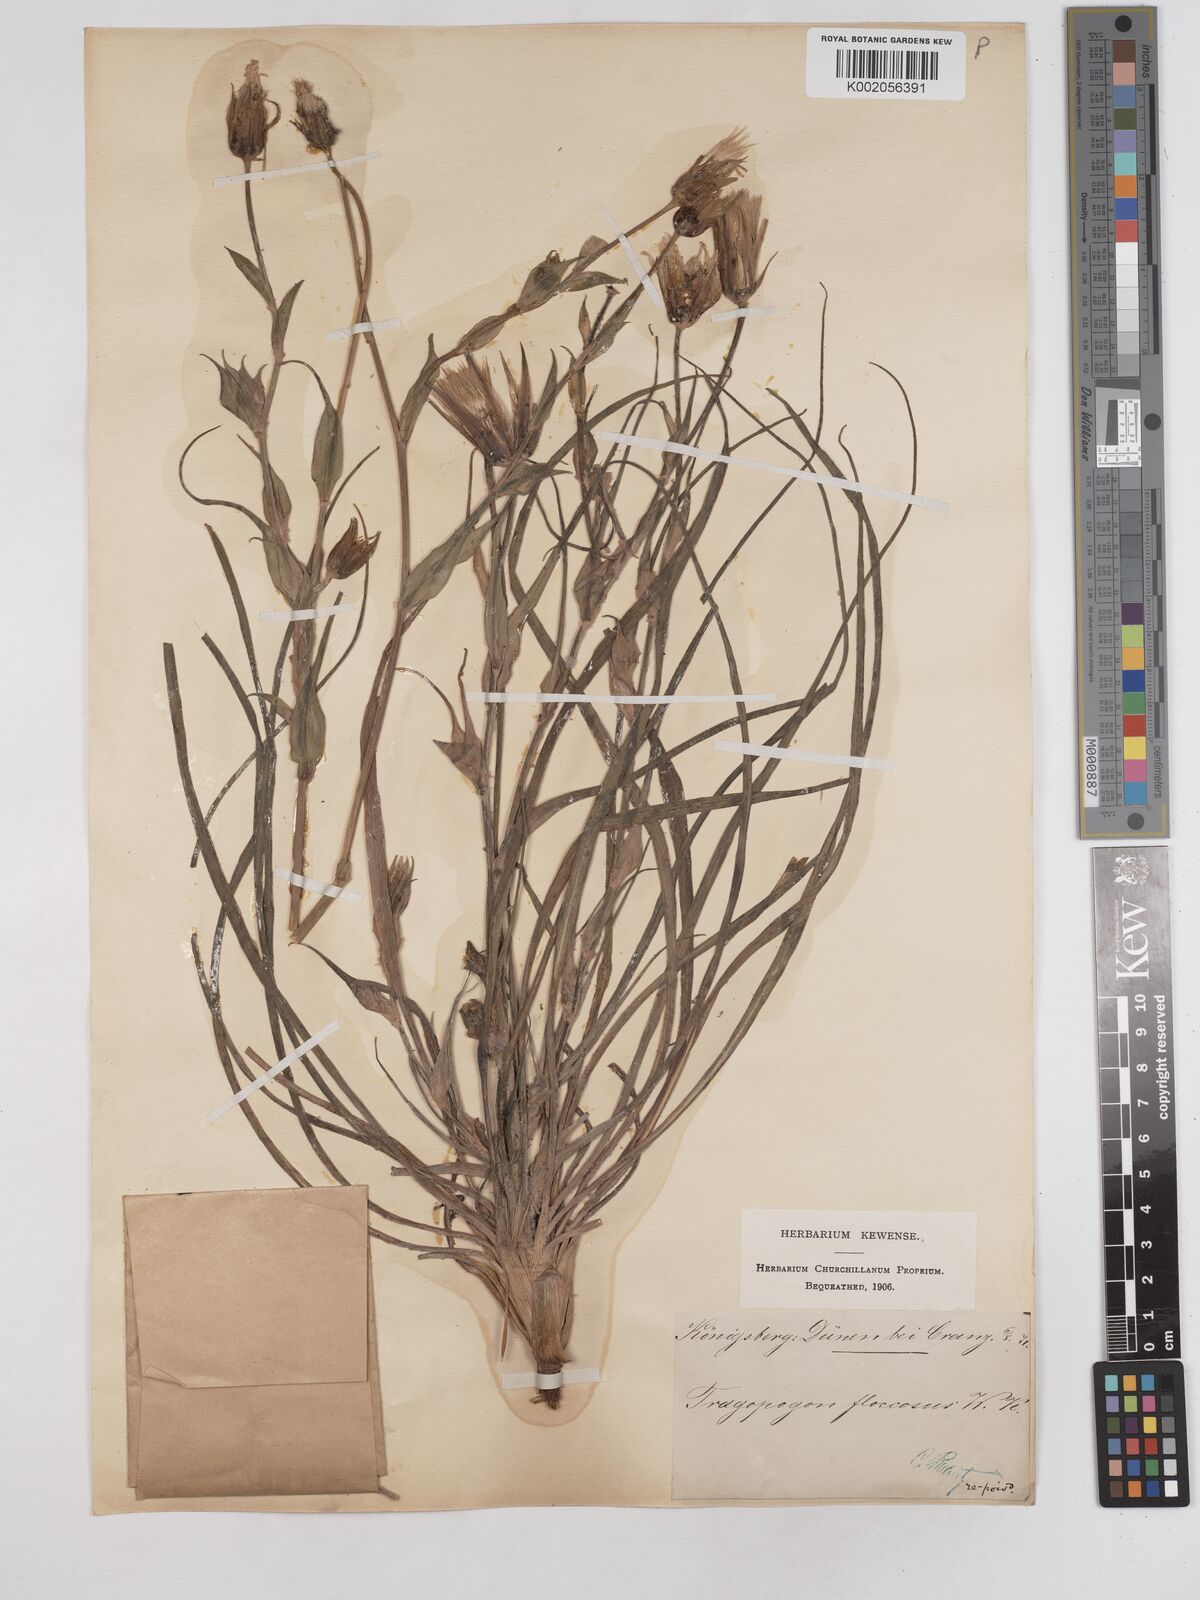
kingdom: Plantae
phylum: Tracheophyta
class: Magnoliopsida
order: Asterales
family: Asteraceae
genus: Tragopogon
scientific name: Tragopogon floccosus
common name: Woolly goatsbeard
